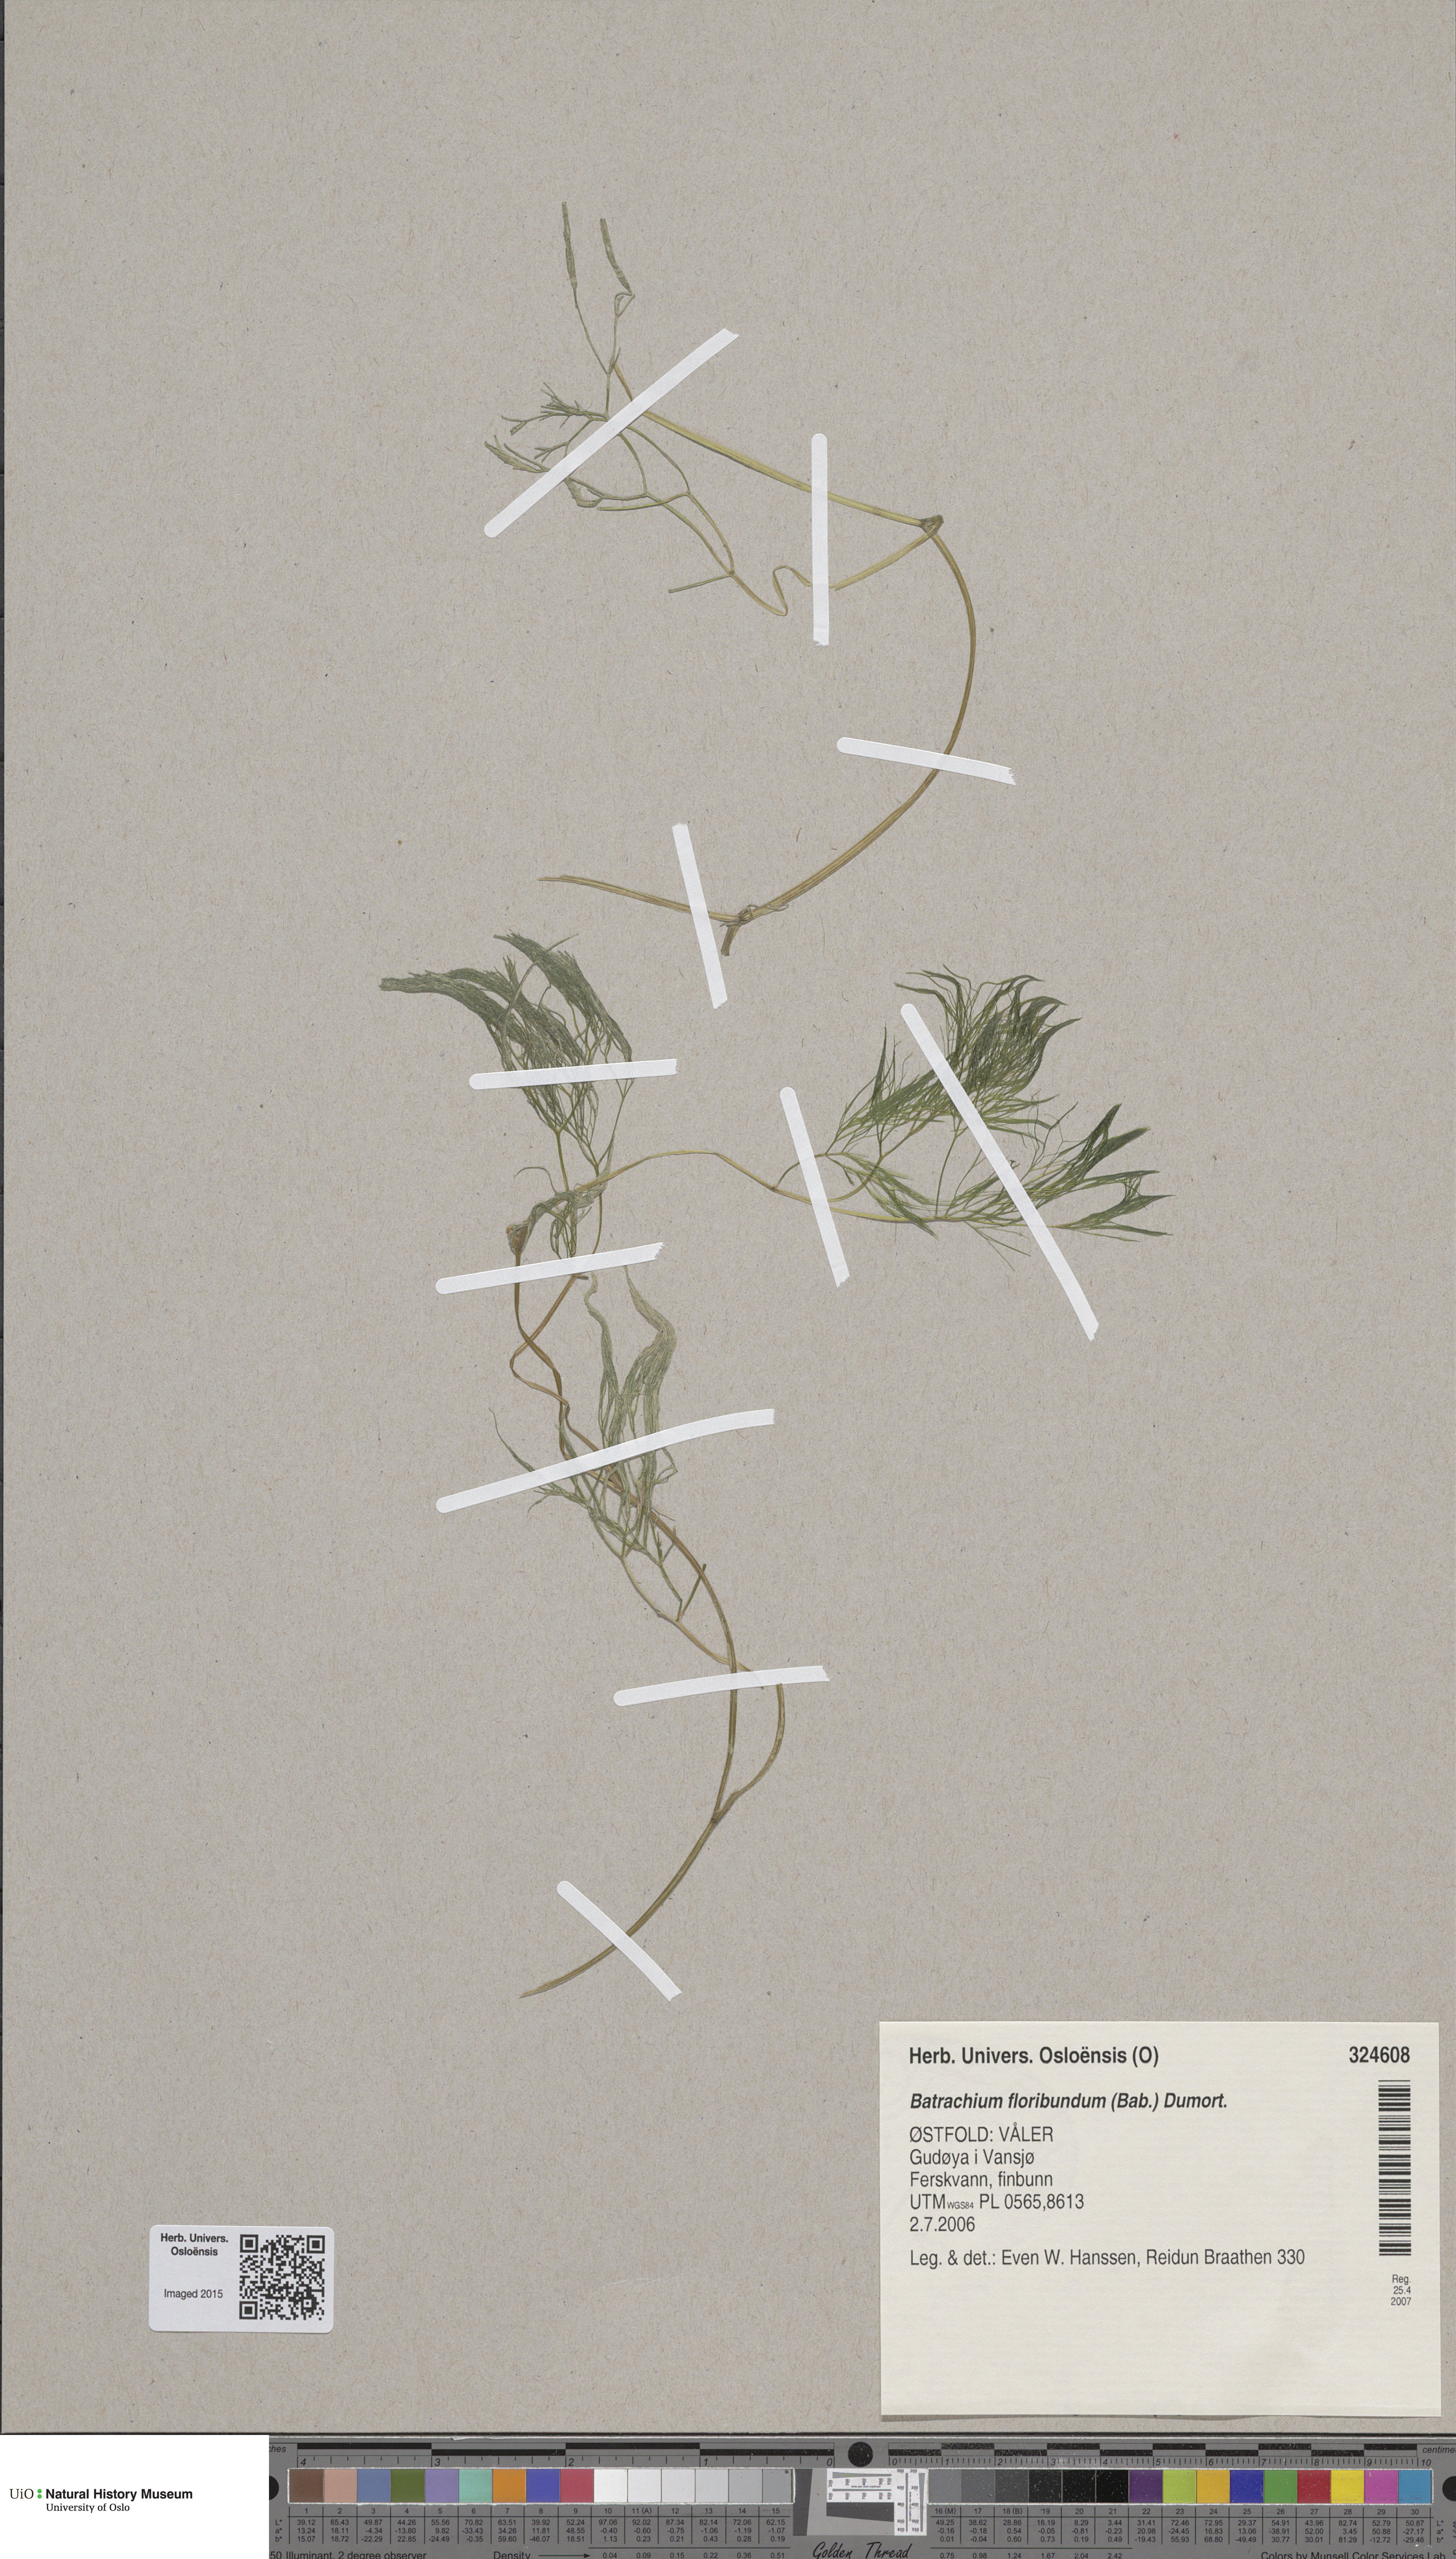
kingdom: Plantae
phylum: Tracheophyta
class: Magnoliopsida
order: Ranunculales
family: Ranunculaceae
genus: Ranunculus
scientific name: Ranunculus peltatus
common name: Pond water-crowfoot
